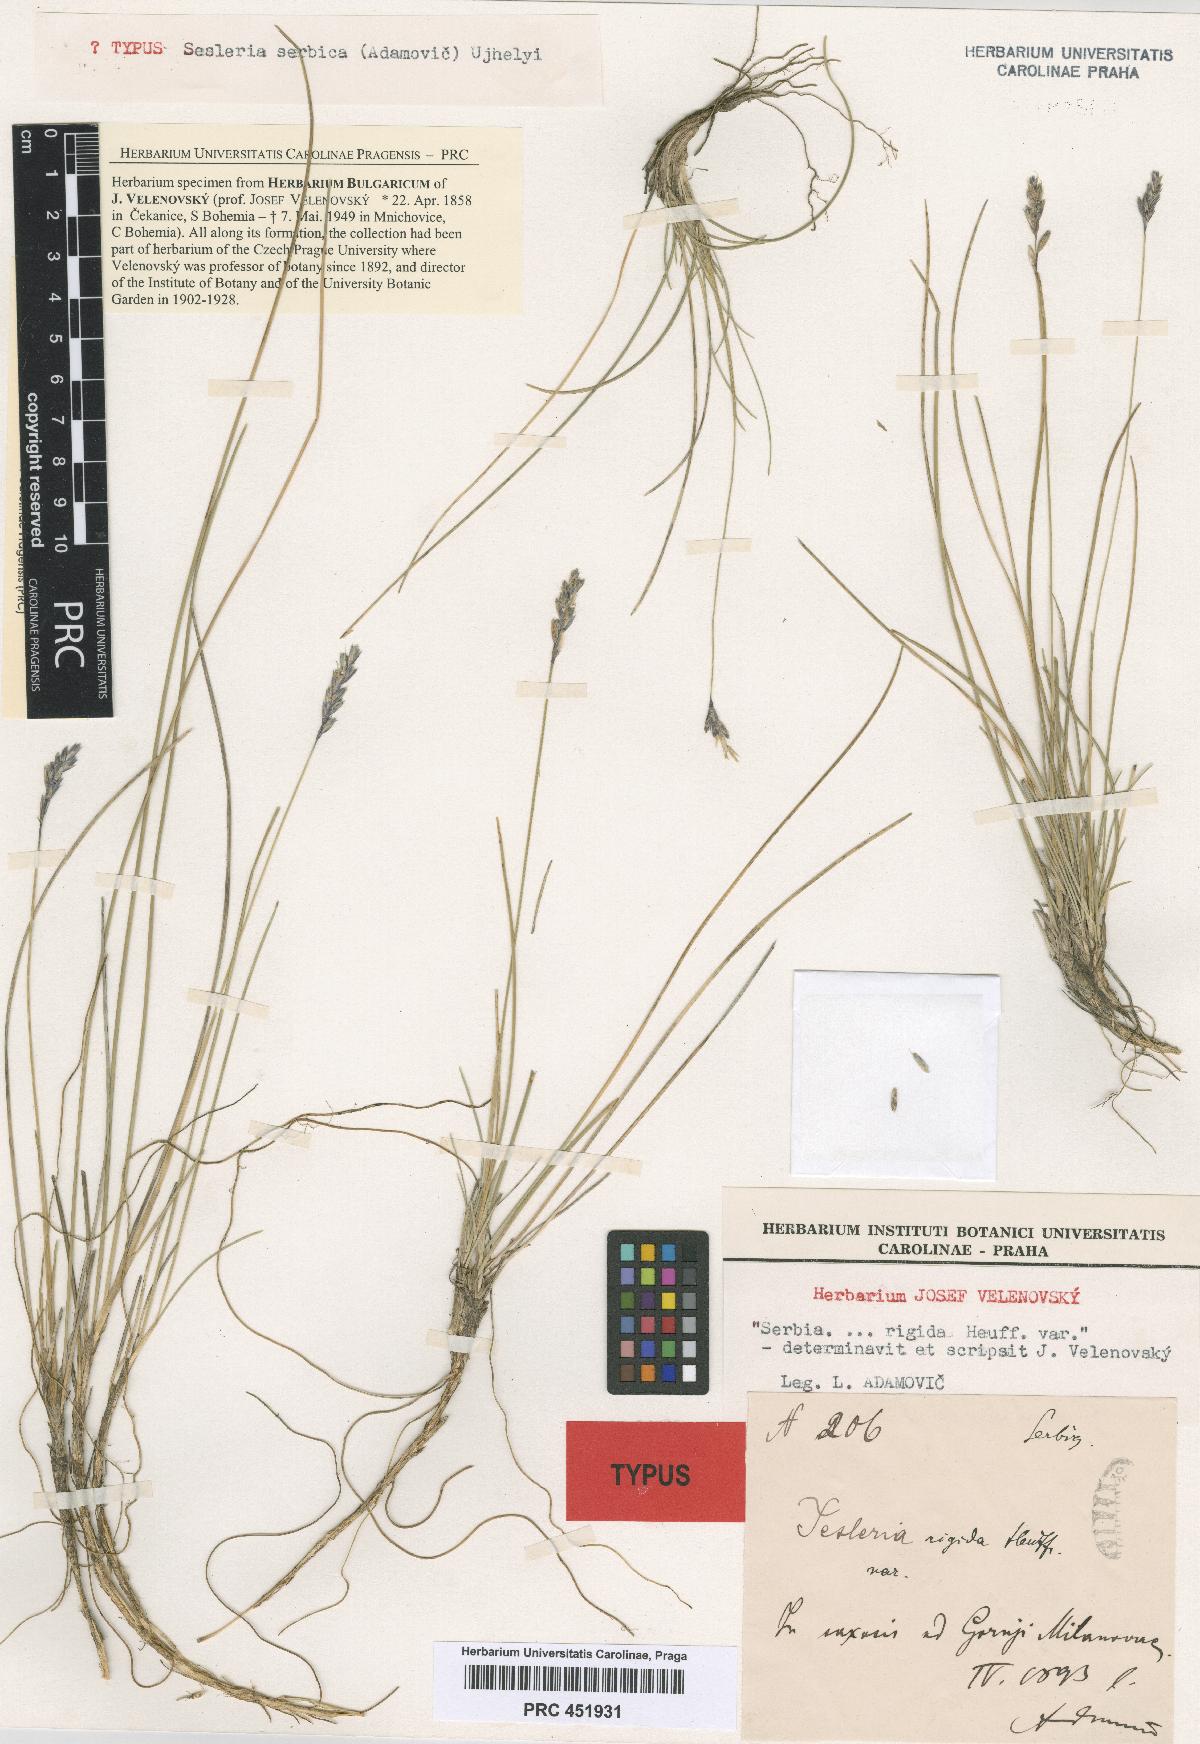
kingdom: Plantae
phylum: Tracheophyta
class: Liliopsida
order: Poales
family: Poaceae
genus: Sesleria
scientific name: Sesleria serbica
